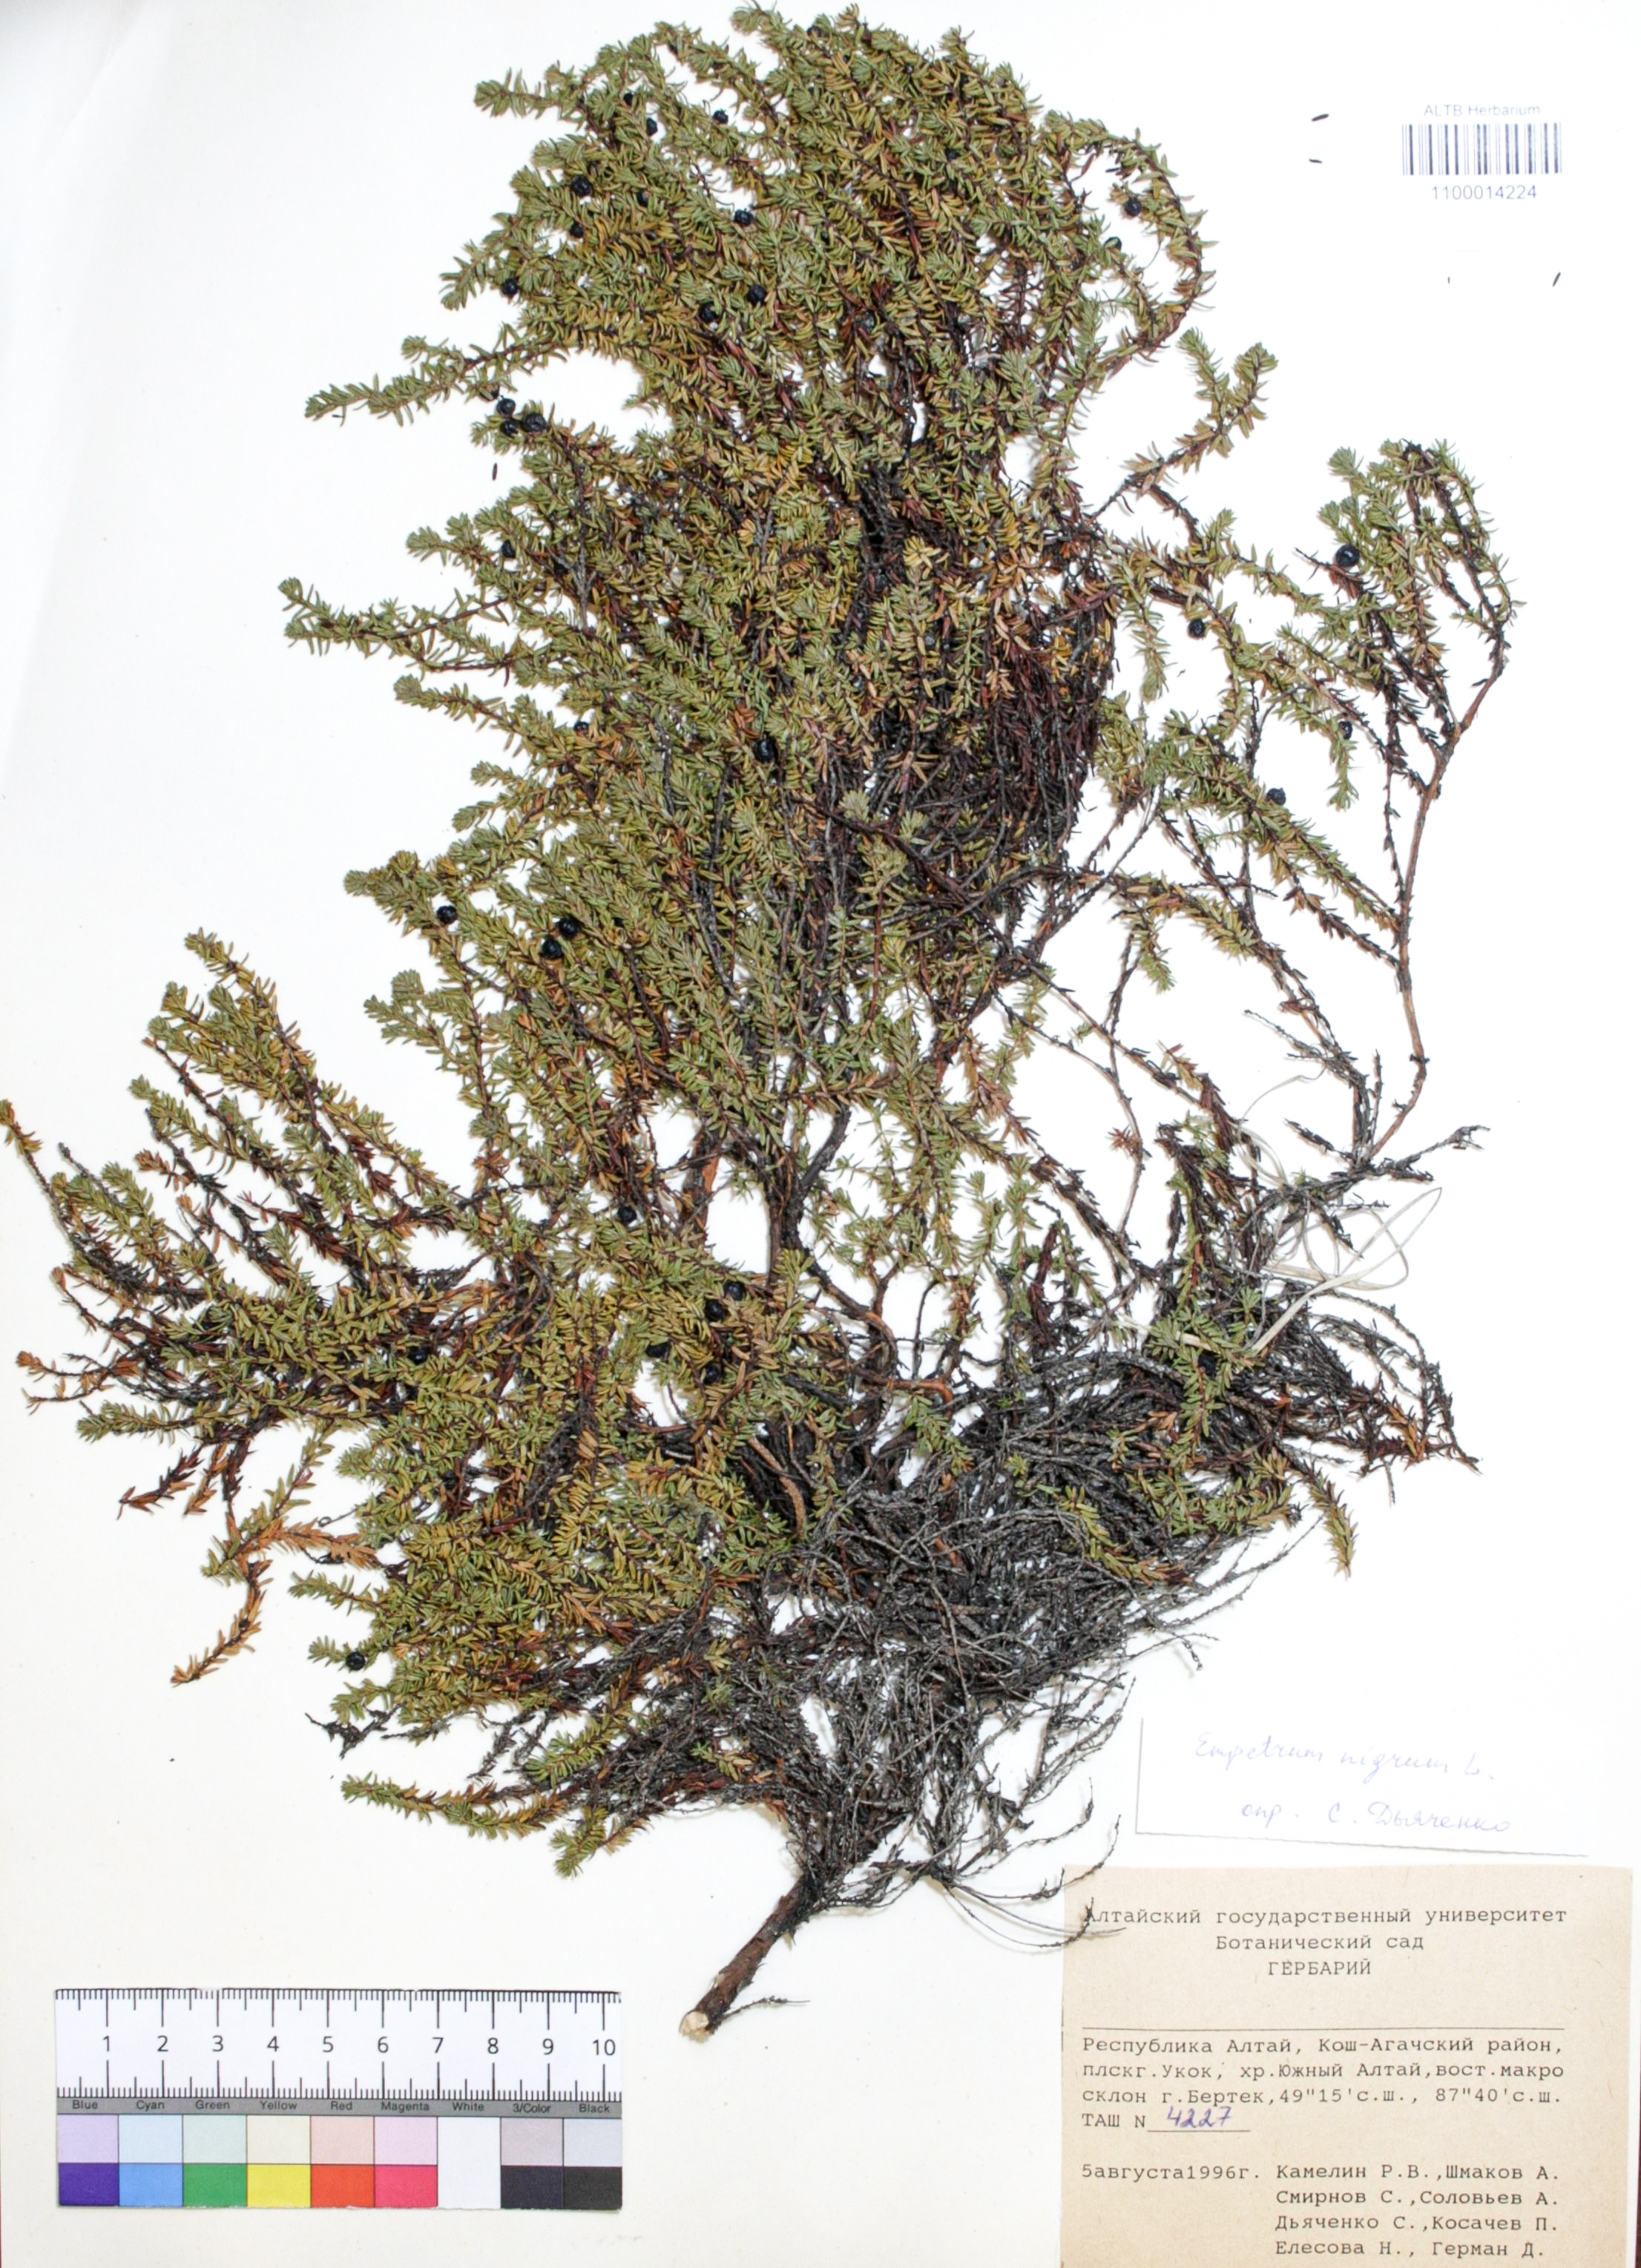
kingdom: Plantae
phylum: Tracheophyta
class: Magnoliopsida
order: Ericales
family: Ericaceae
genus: Empetrum
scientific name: Empetrum nigrum
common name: Black crowberry
